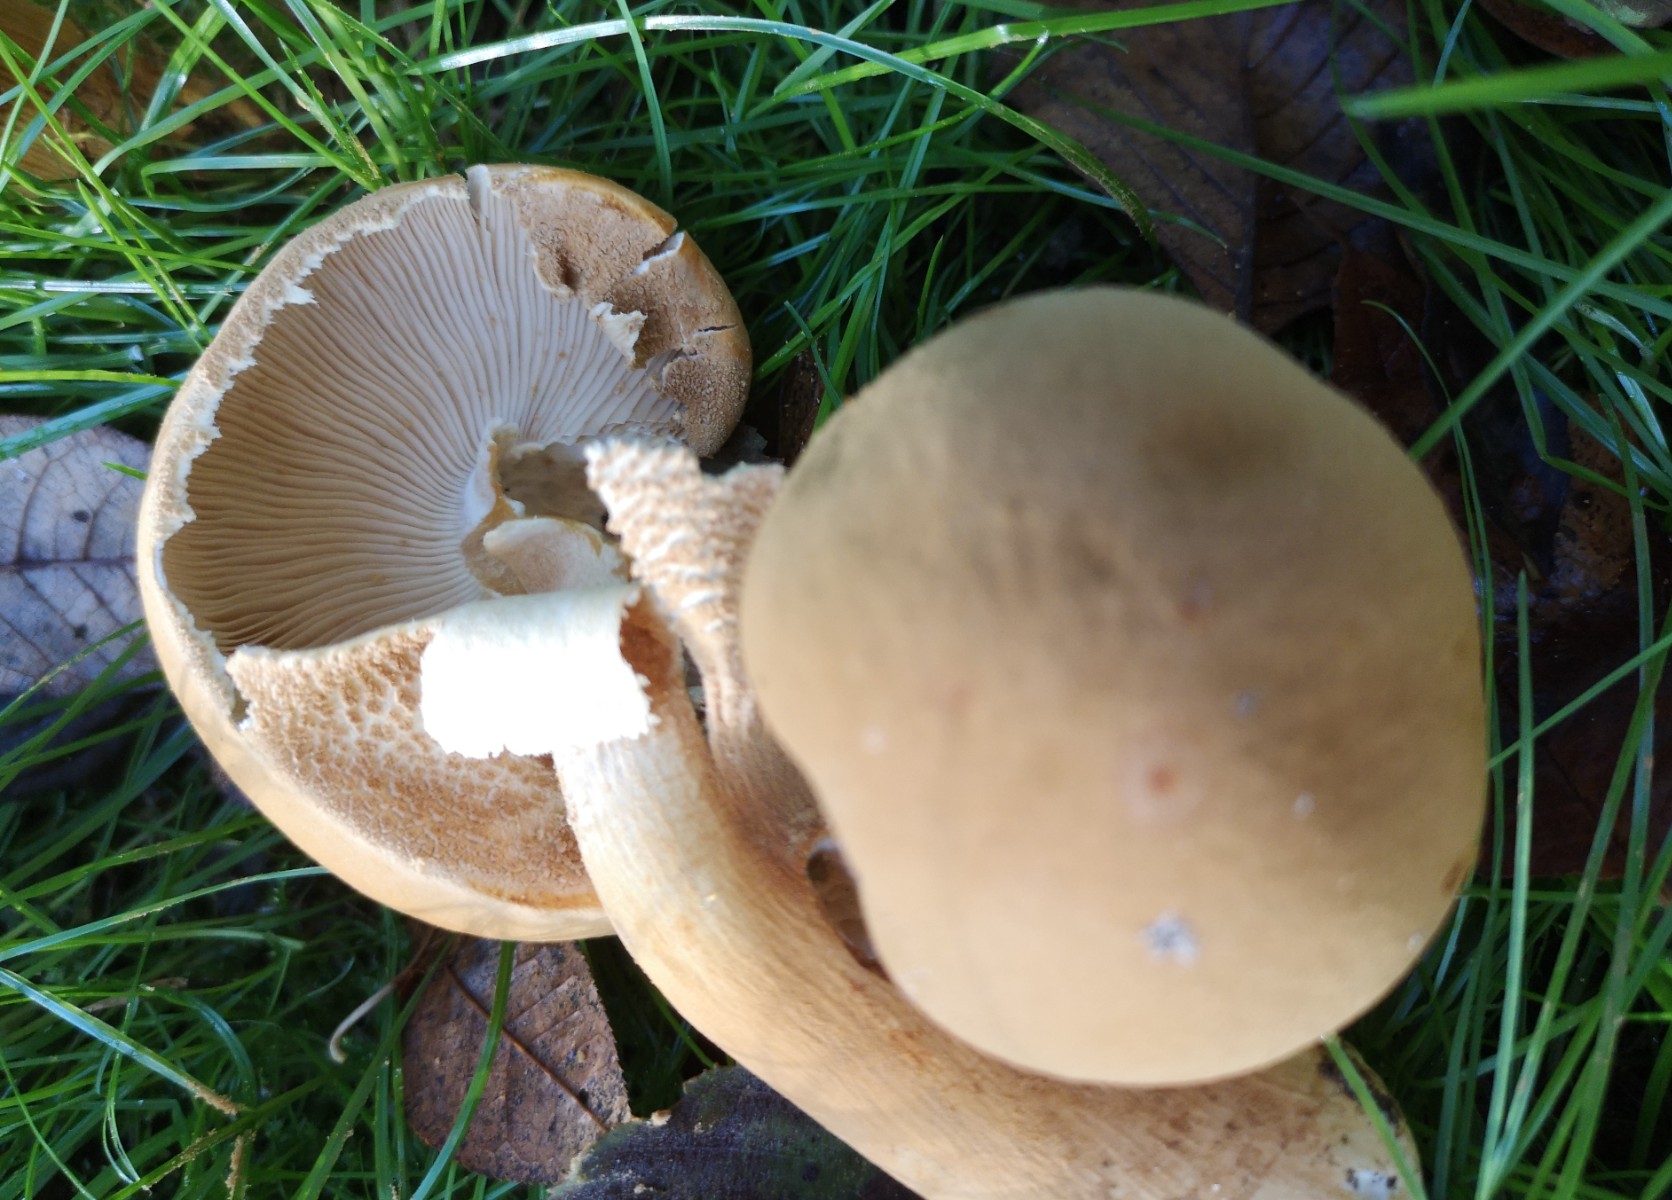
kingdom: Fungi
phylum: Basidiomycota
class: Agaricomycetes
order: Agaricales
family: Tricholomataceae
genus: Phaeolepiota
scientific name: Phaeolepiota aurea
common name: gyldenhat
